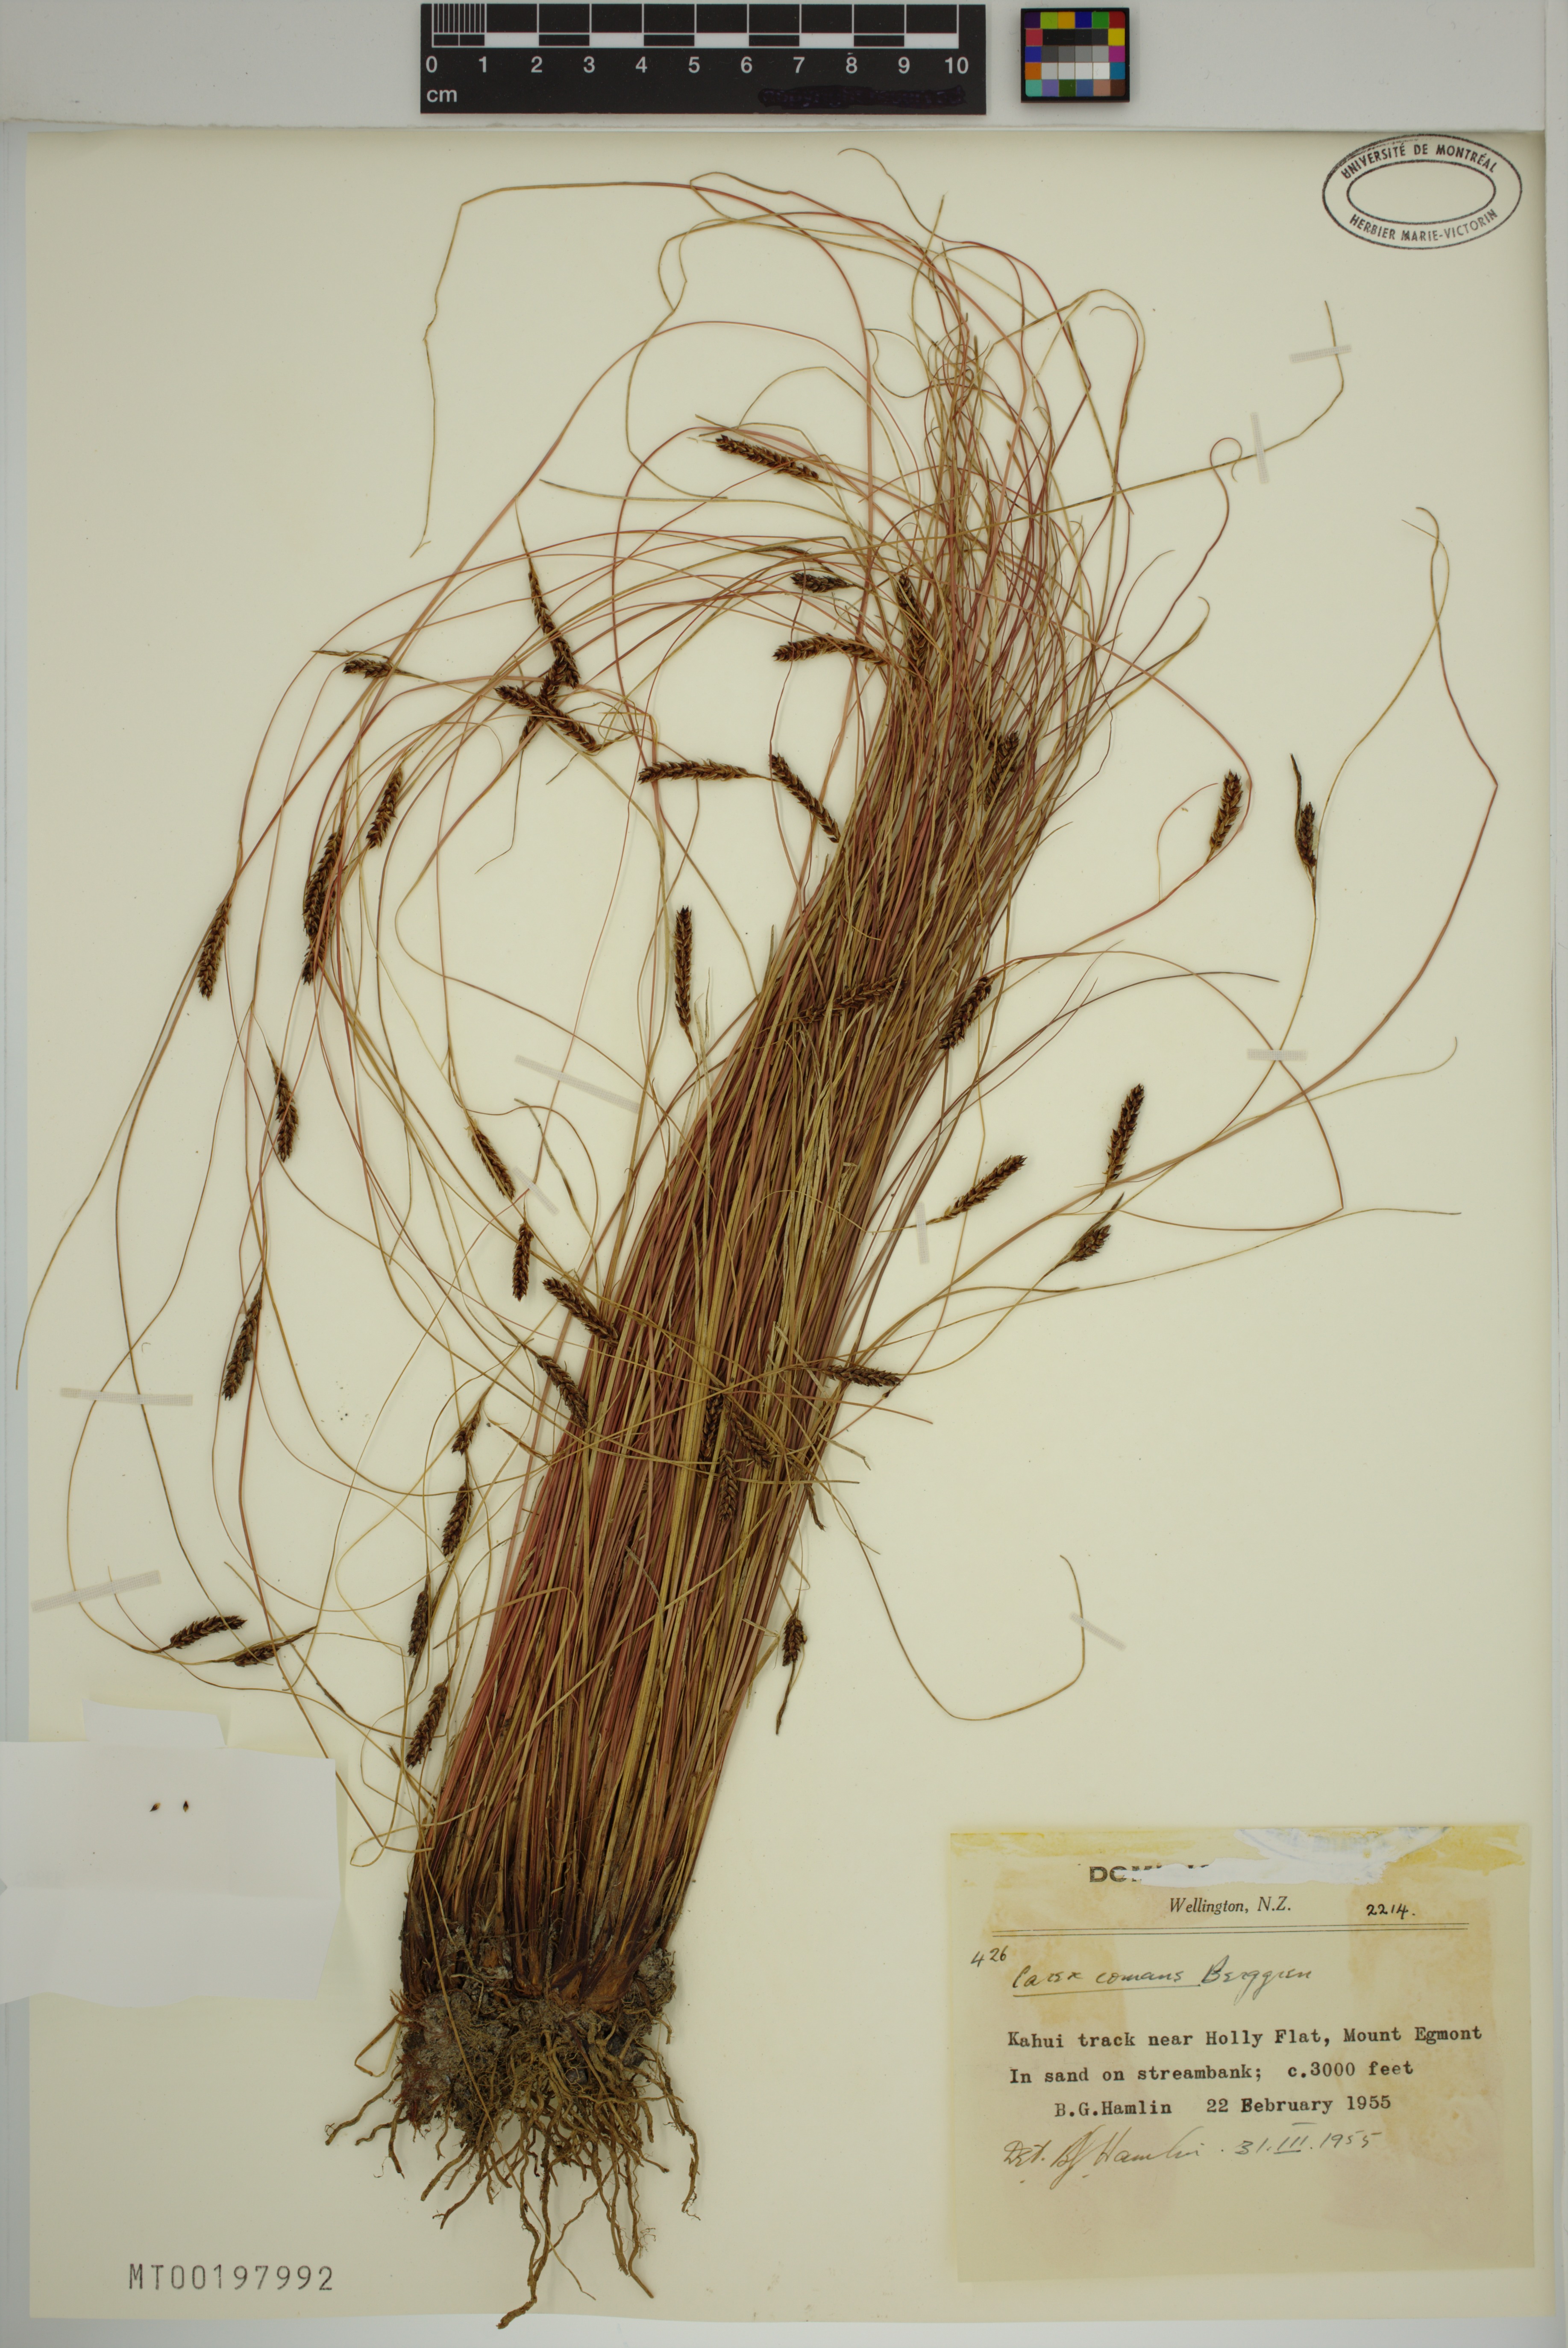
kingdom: Plantae
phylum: Tracheophyta
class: Liliopsida
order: Poales
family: Cyperaceae
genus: Carex
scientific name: Carex comans
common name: Longwood tussock
